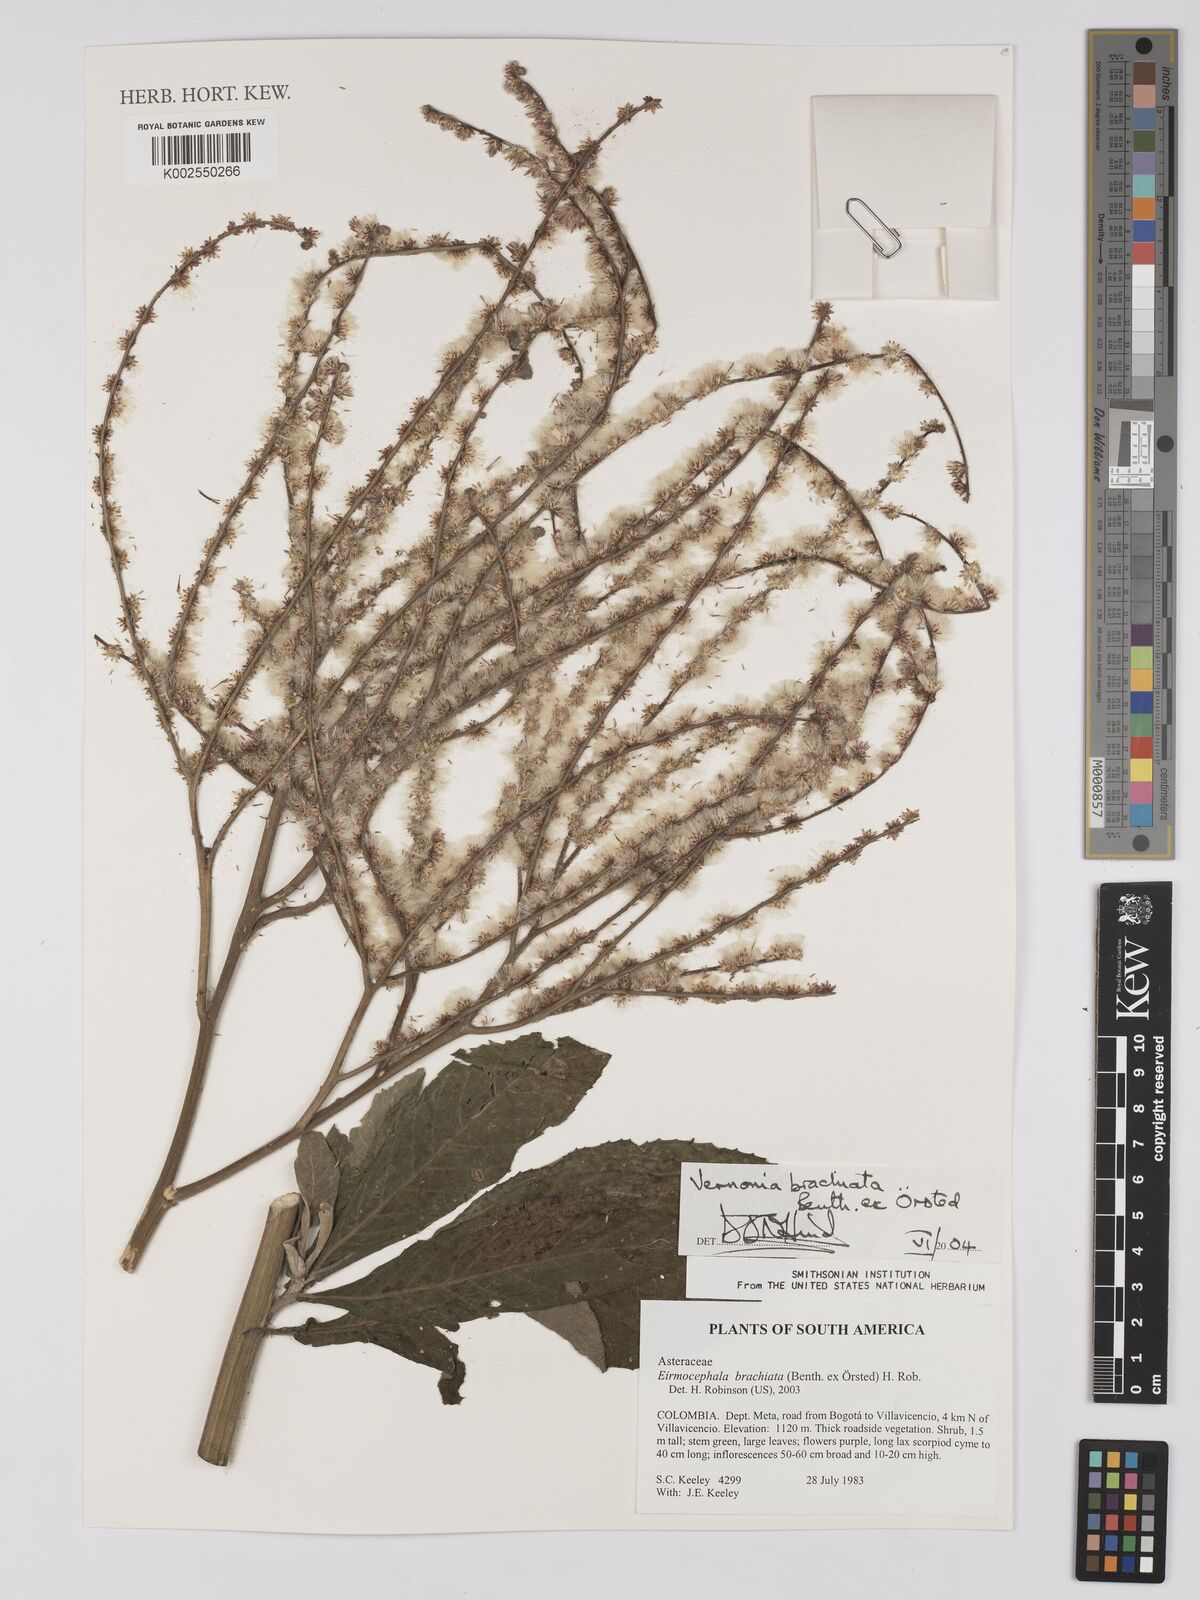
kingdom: Plantae
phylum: Tracheophyta
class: Magnoliopsida
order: Asterales
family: Asteraceae
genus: Eirmocephala
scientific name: Eirmocephala brachiata
